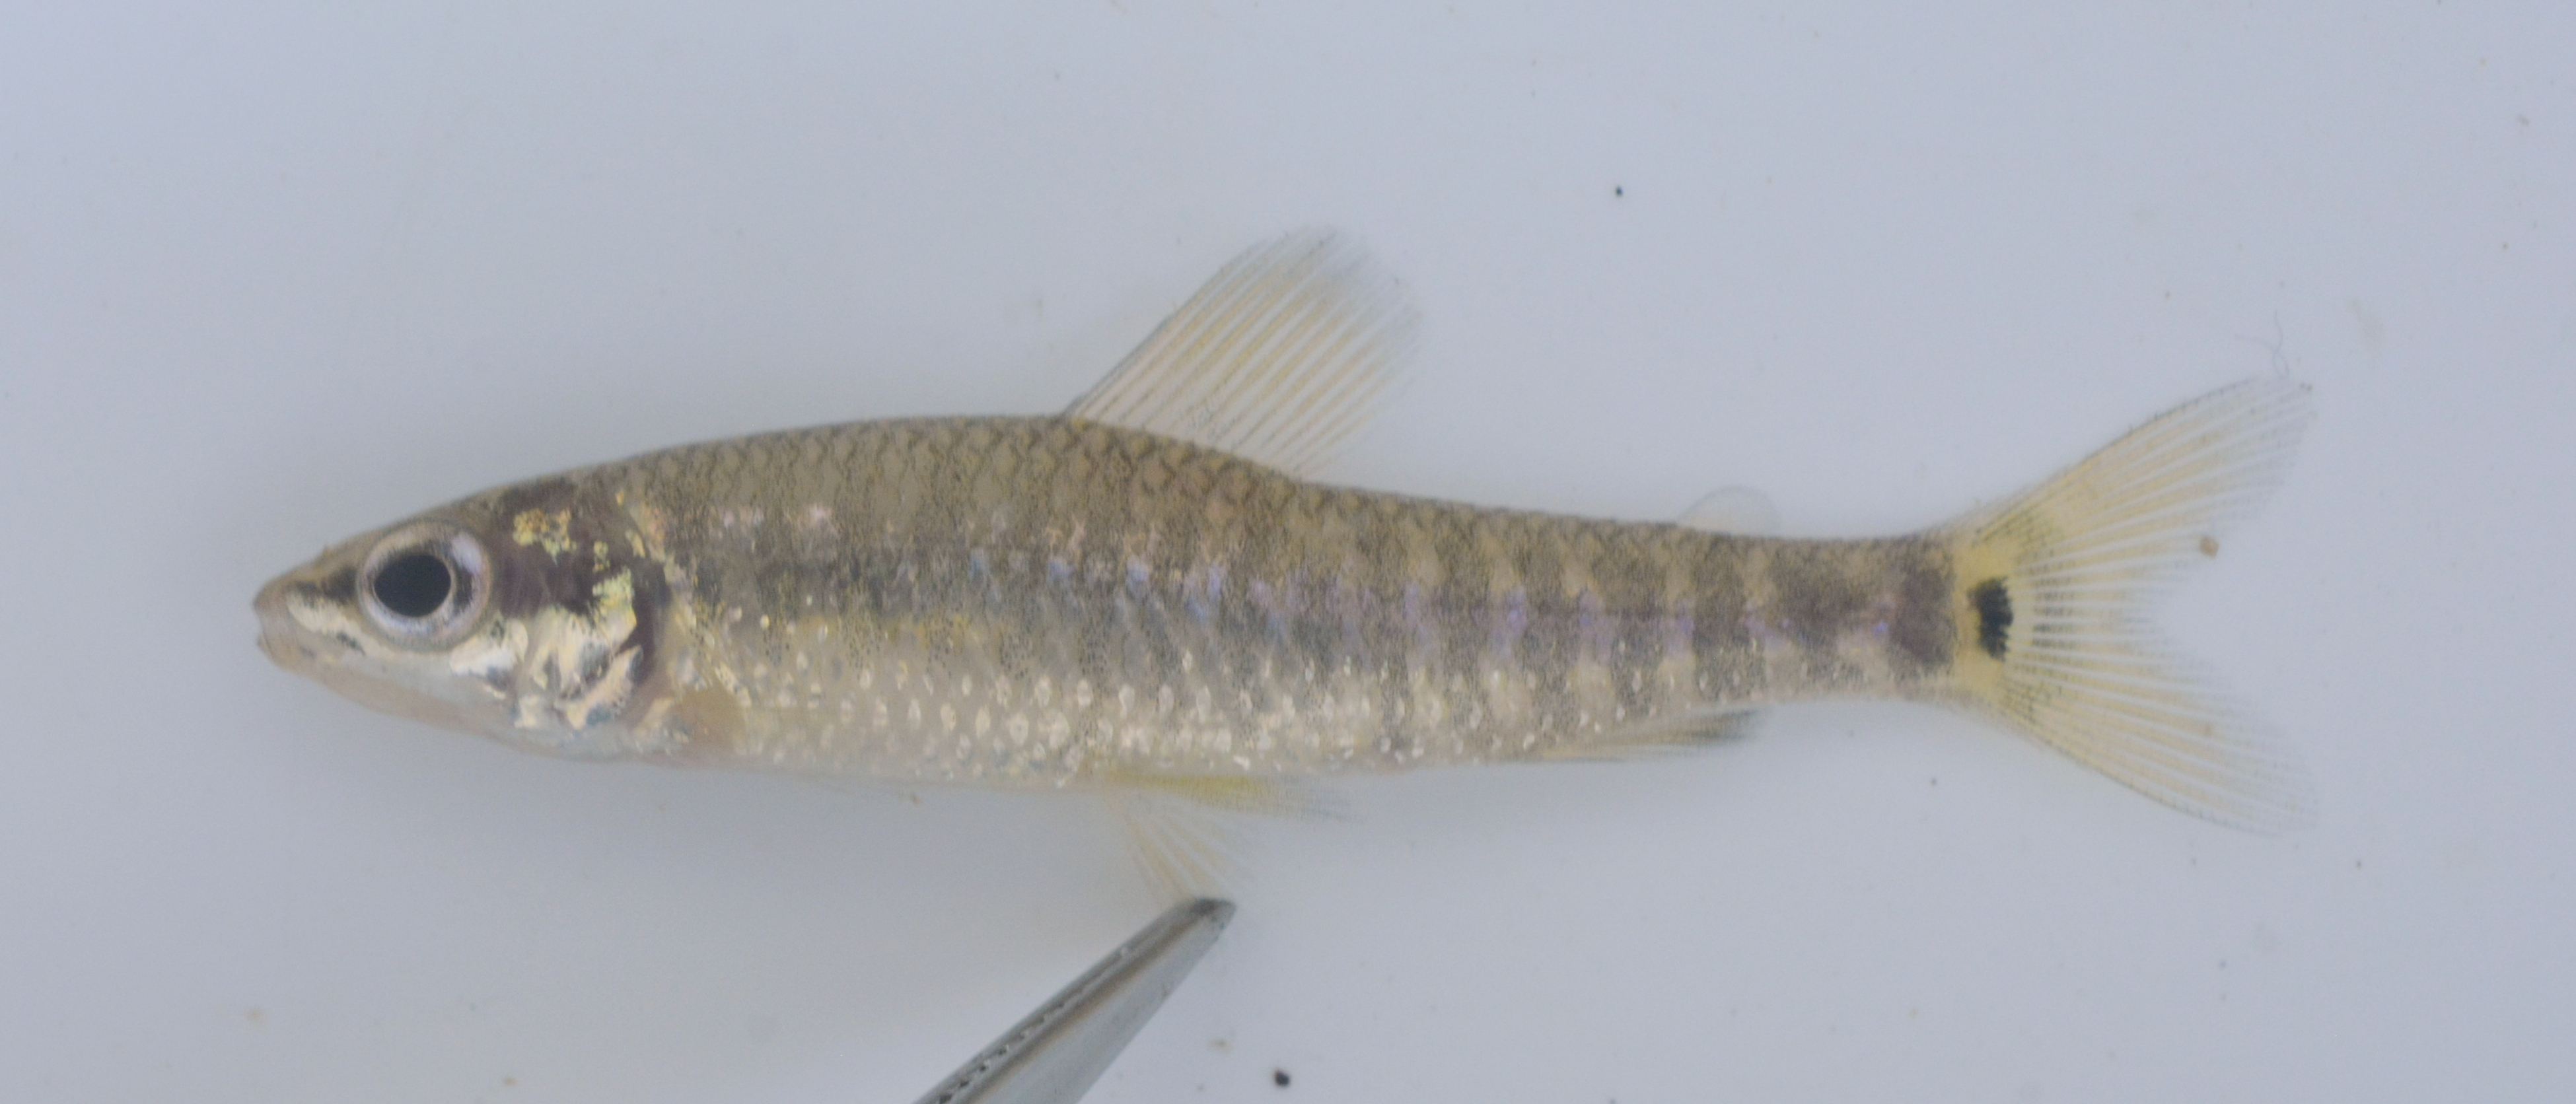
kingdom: Animalia
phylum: Chordata
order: Characiformes
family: Distichodontidae
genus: Nannocharax
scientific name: Nannocharax multifasciatus
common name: Multibar citharine
